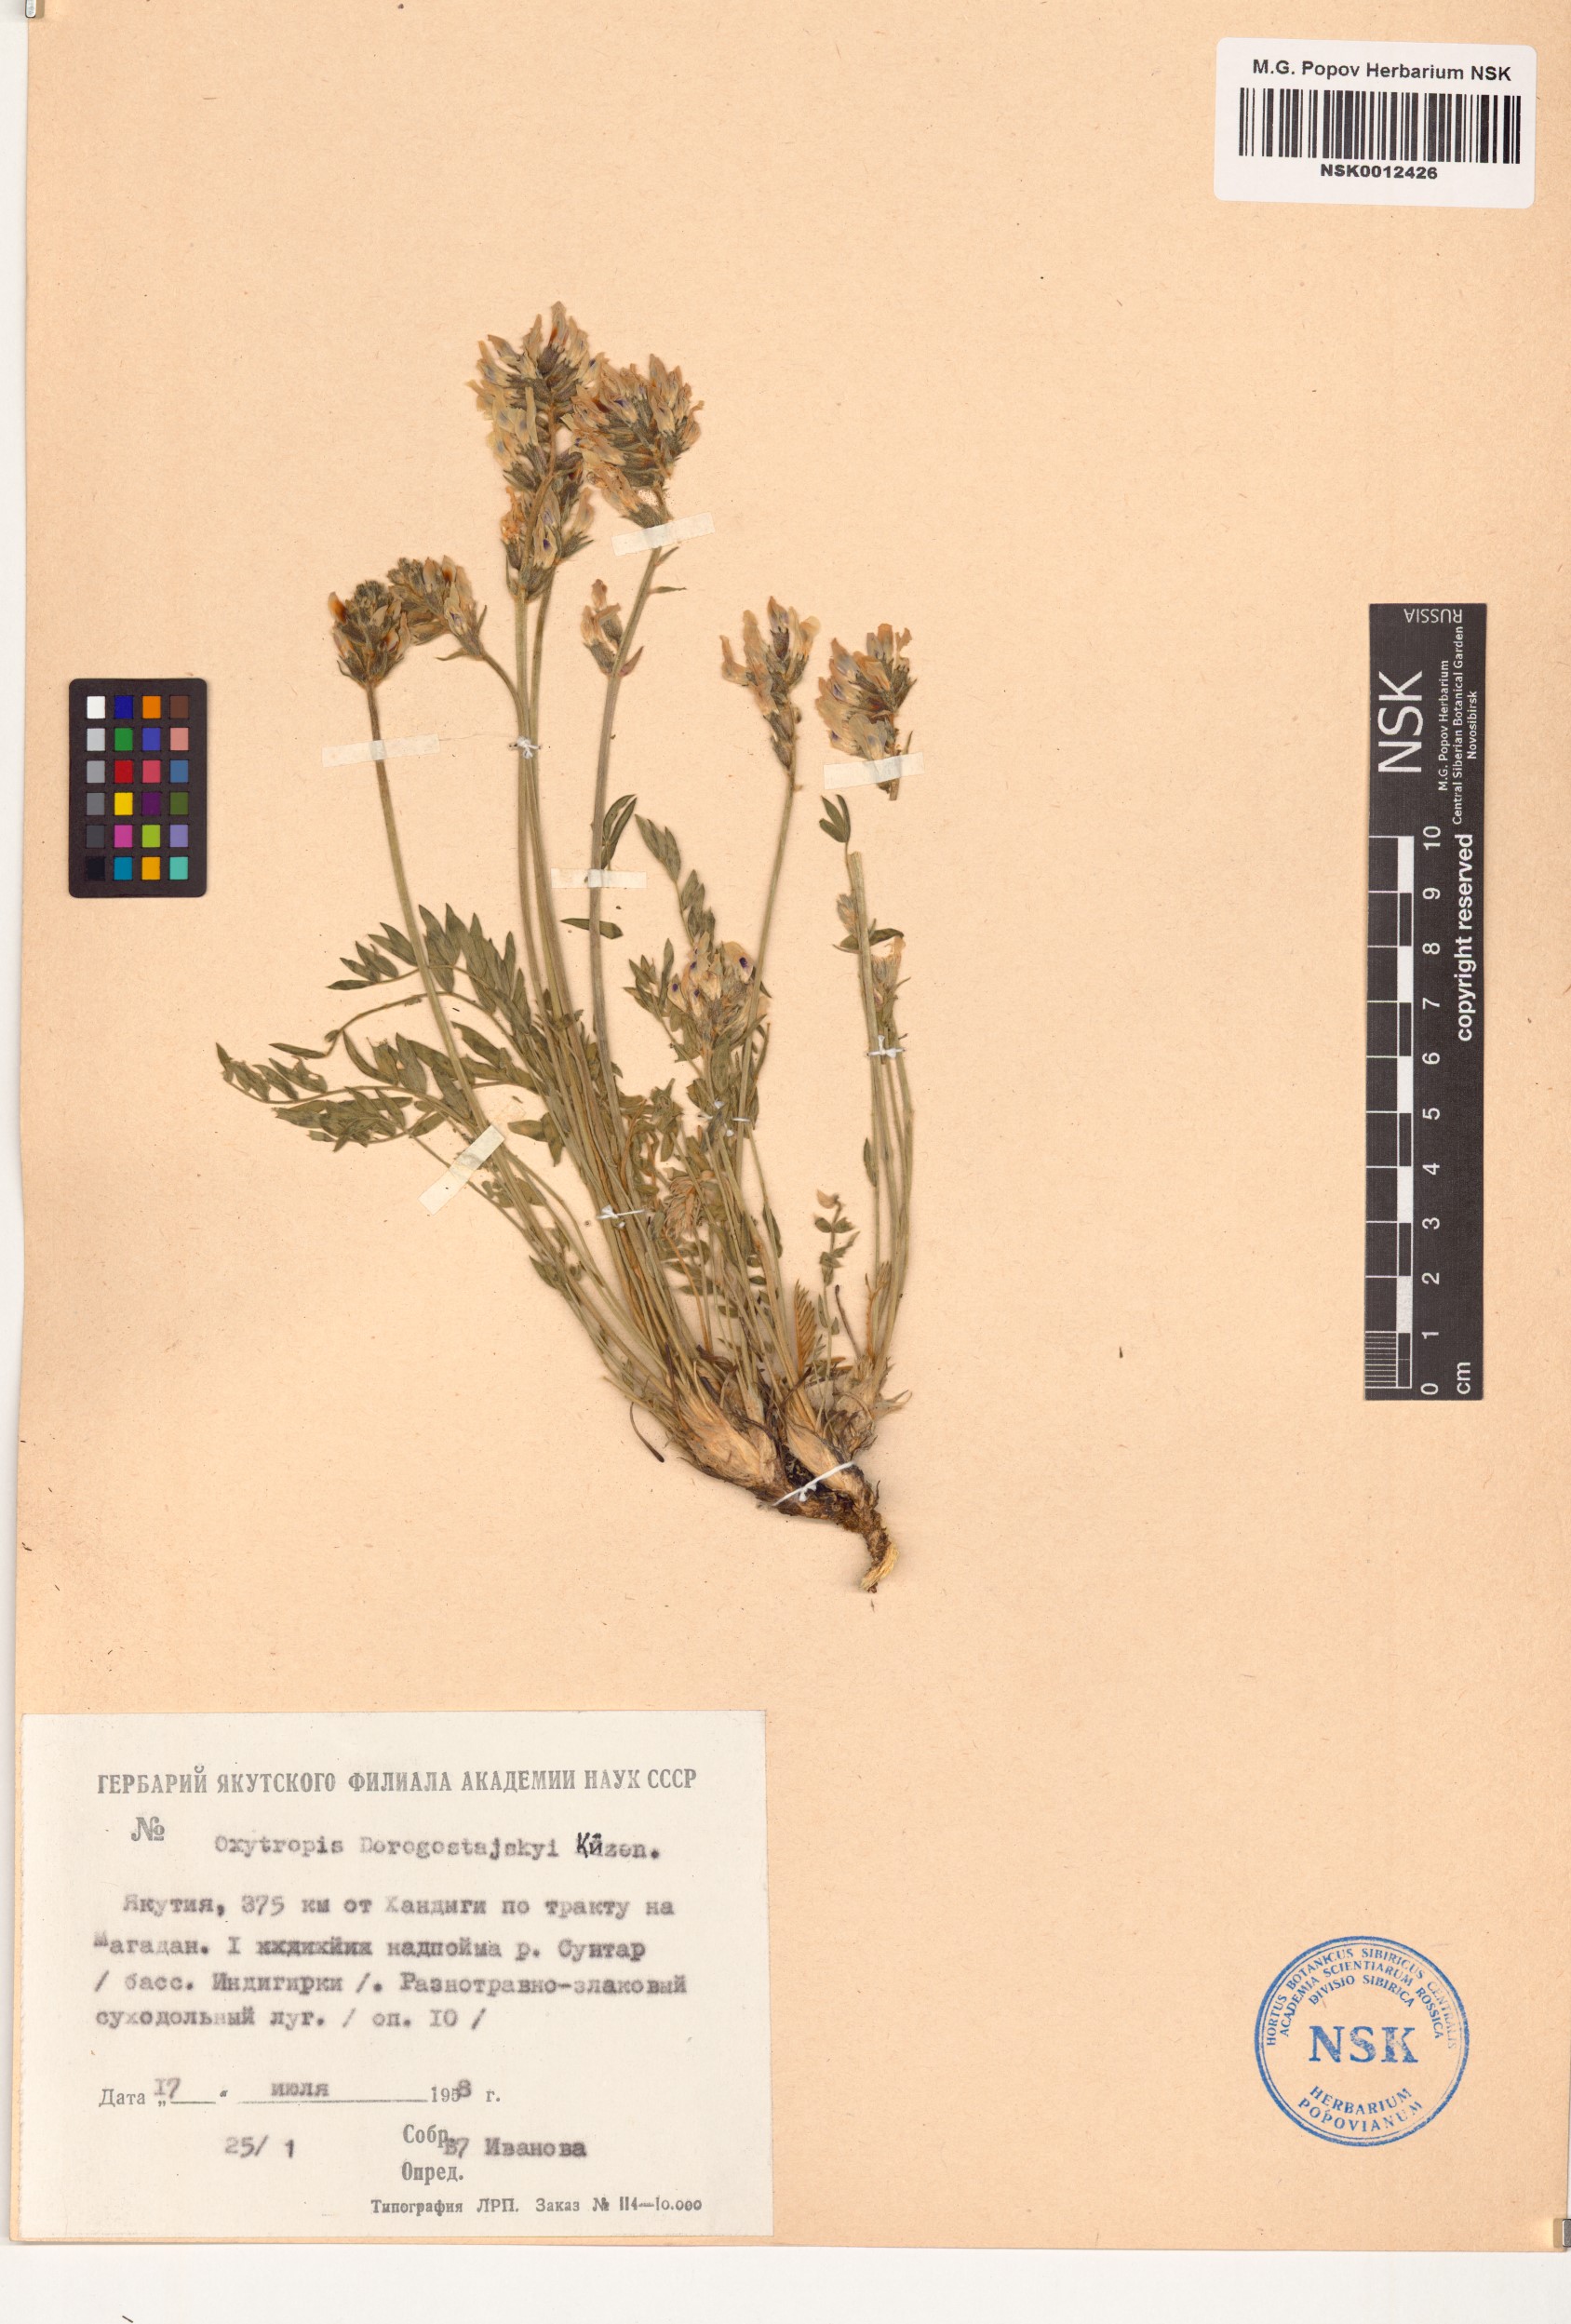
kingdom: Plantae
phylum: Tracheophyta
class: Magnoliopsida
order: Fabales
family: Fabaceae
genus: Oxytropis
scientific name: Oxytropis dorogostajskyi
